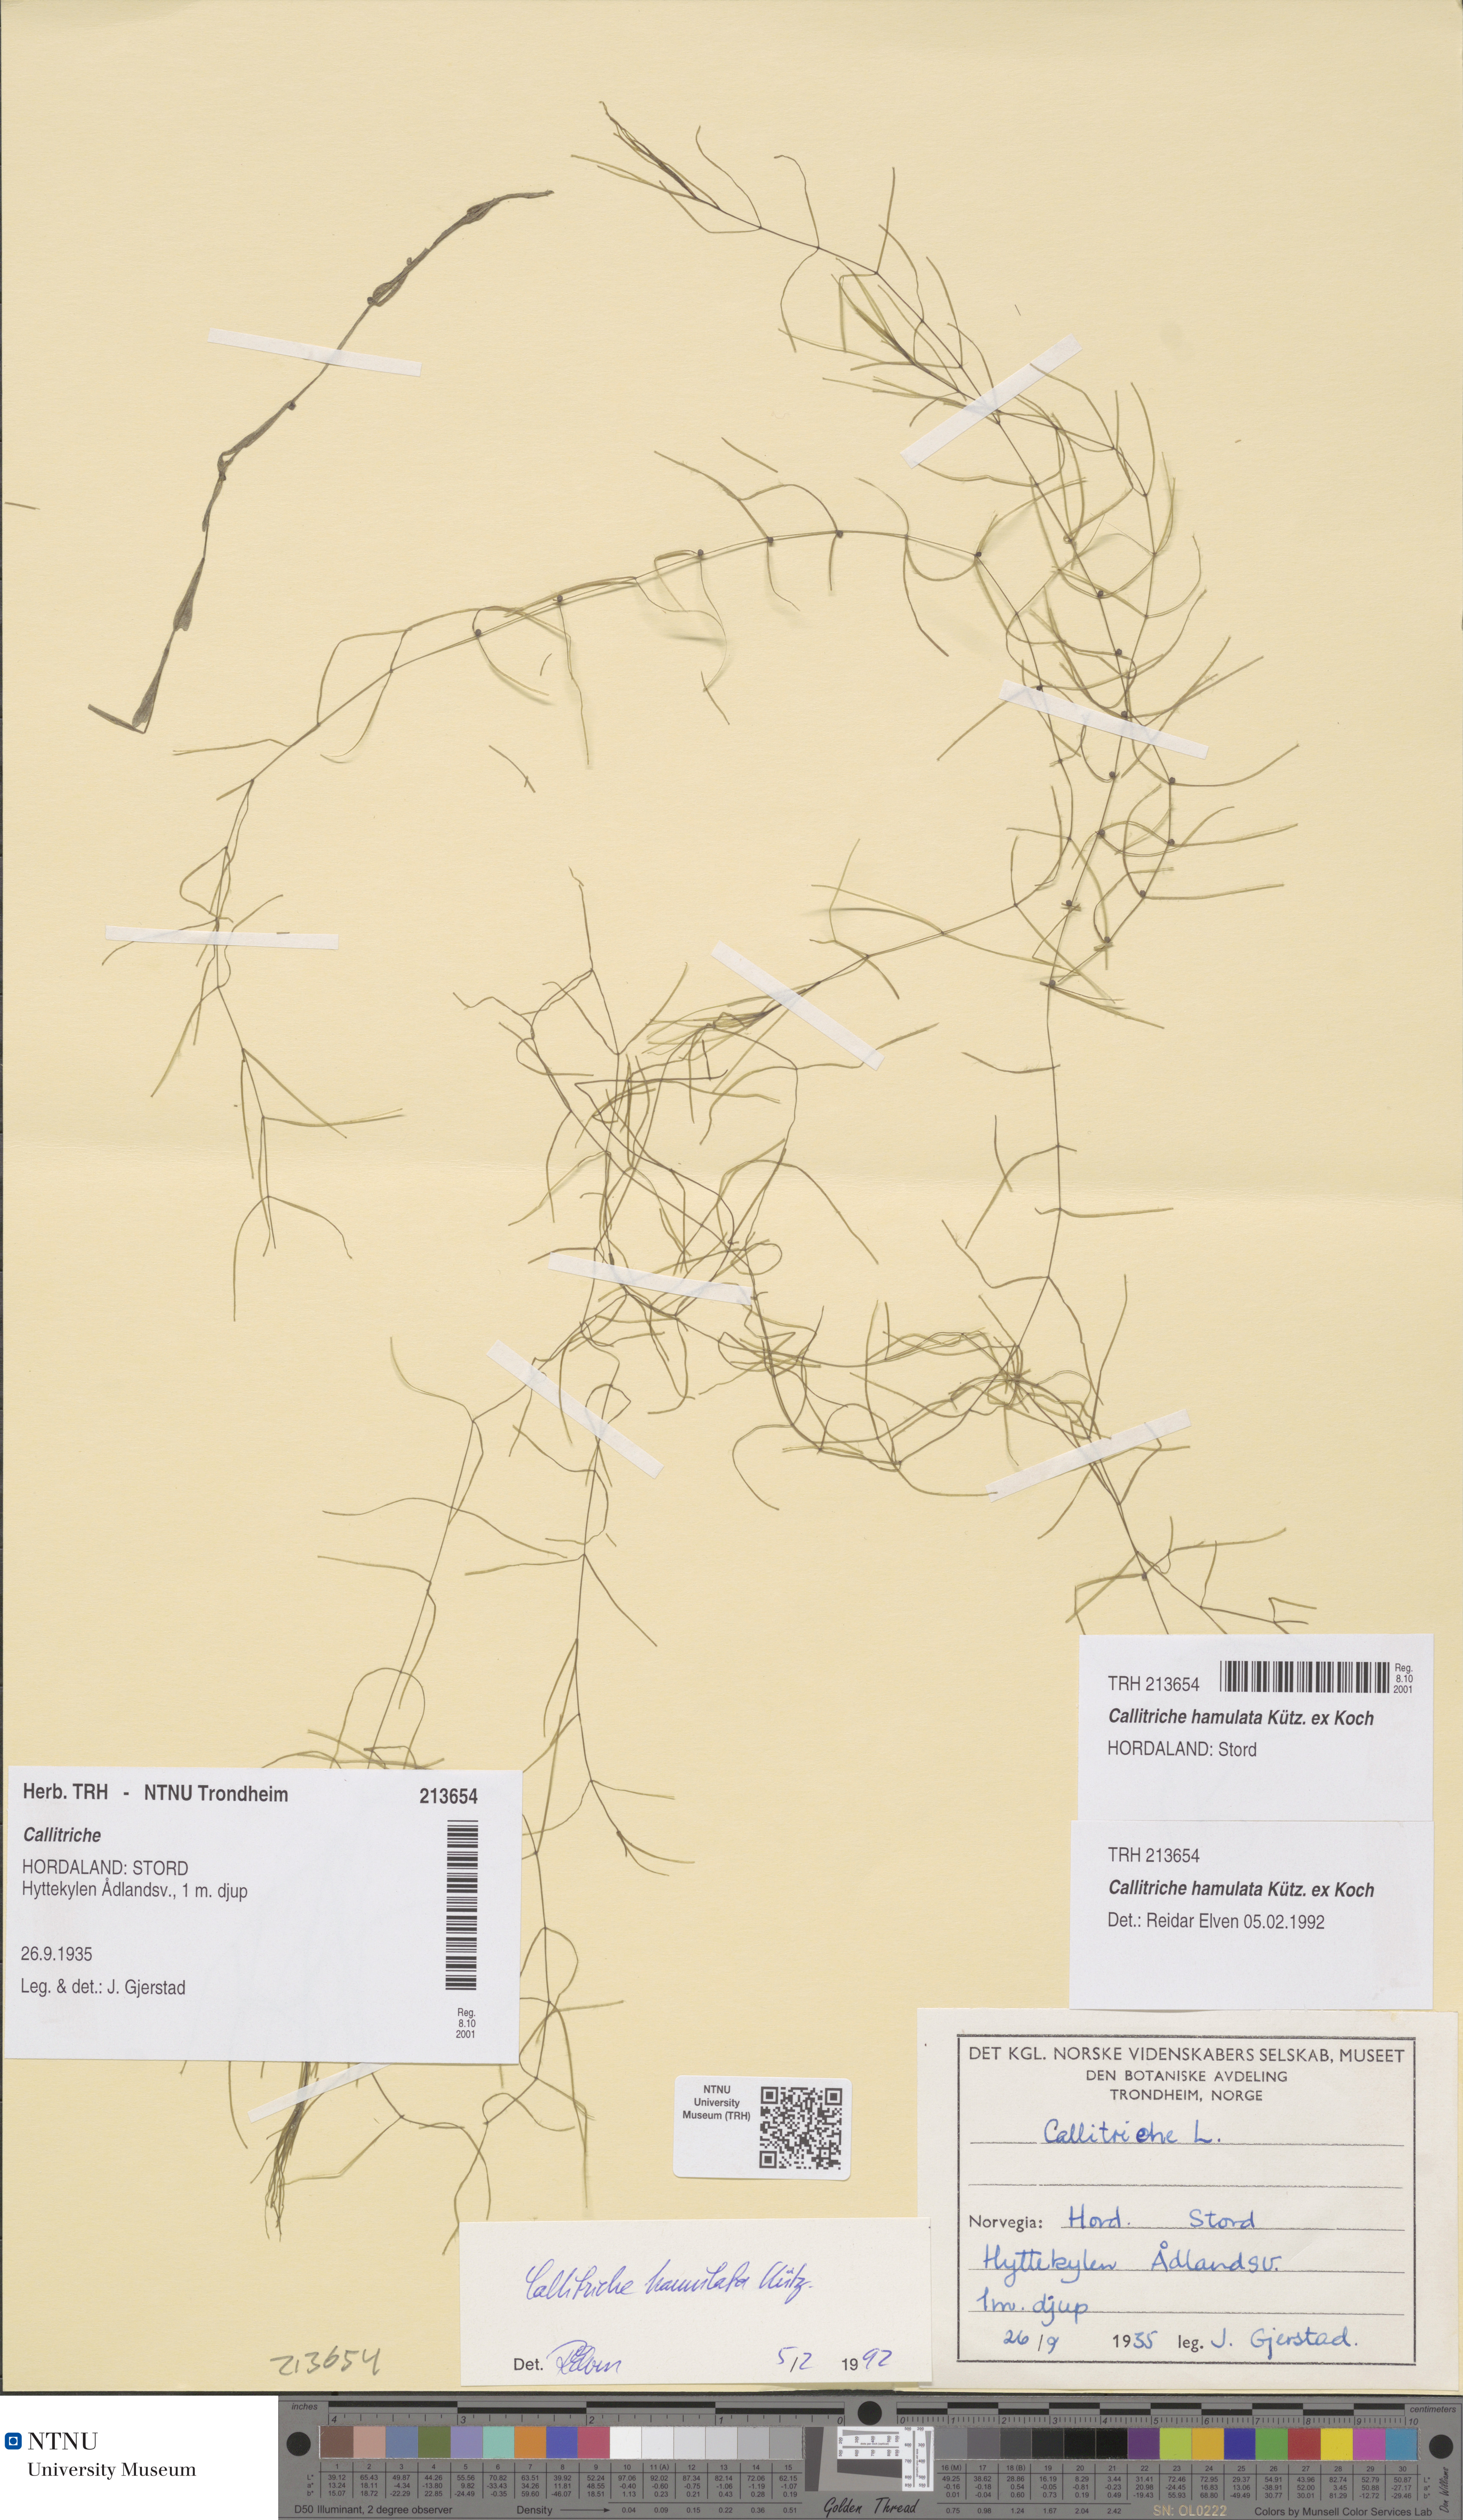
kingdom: Plantae
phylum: Tracheophyta
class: Magnoliopsida
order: Lamiales
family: Plantaginaceae
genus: Callitriche
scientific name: Callitriche hamulata
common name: Intermediate water-starwort
